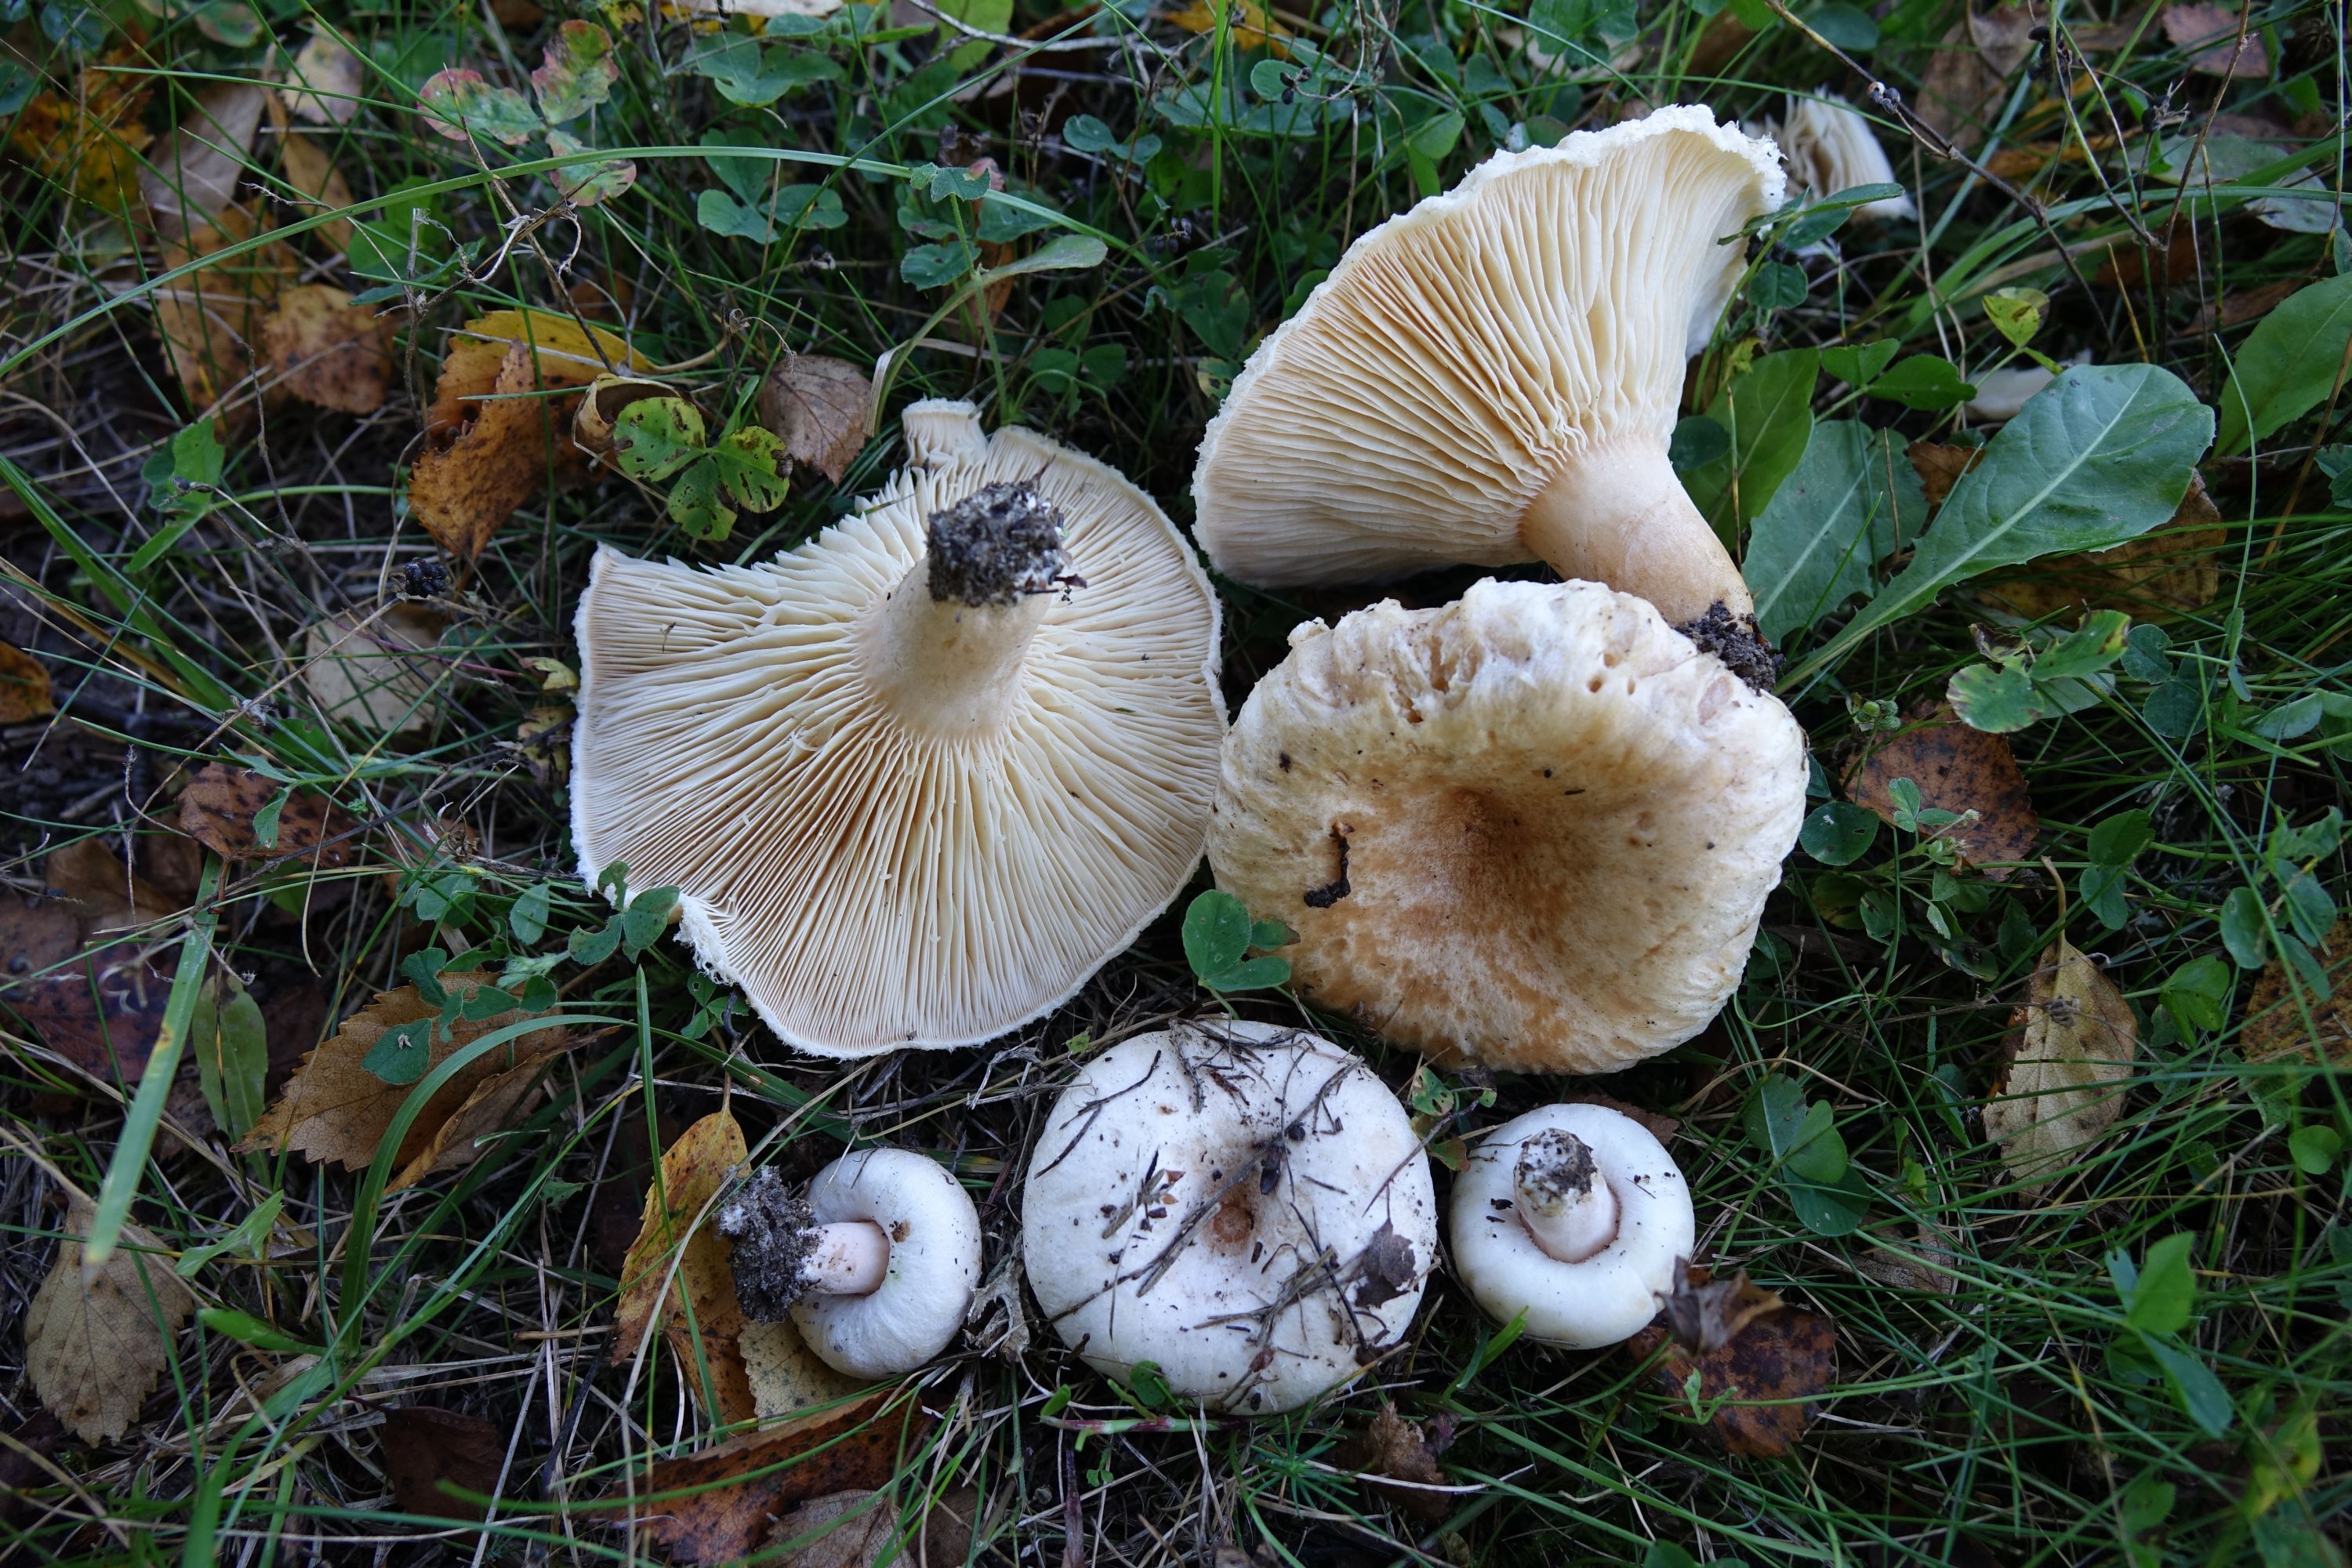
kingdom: Fungi
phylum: Basidiomycota
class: Agaricomycetes
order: Russulales
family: Russulaceae
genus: Lactarius
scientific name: Lactarius pubescens
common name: Bearded milkcap
